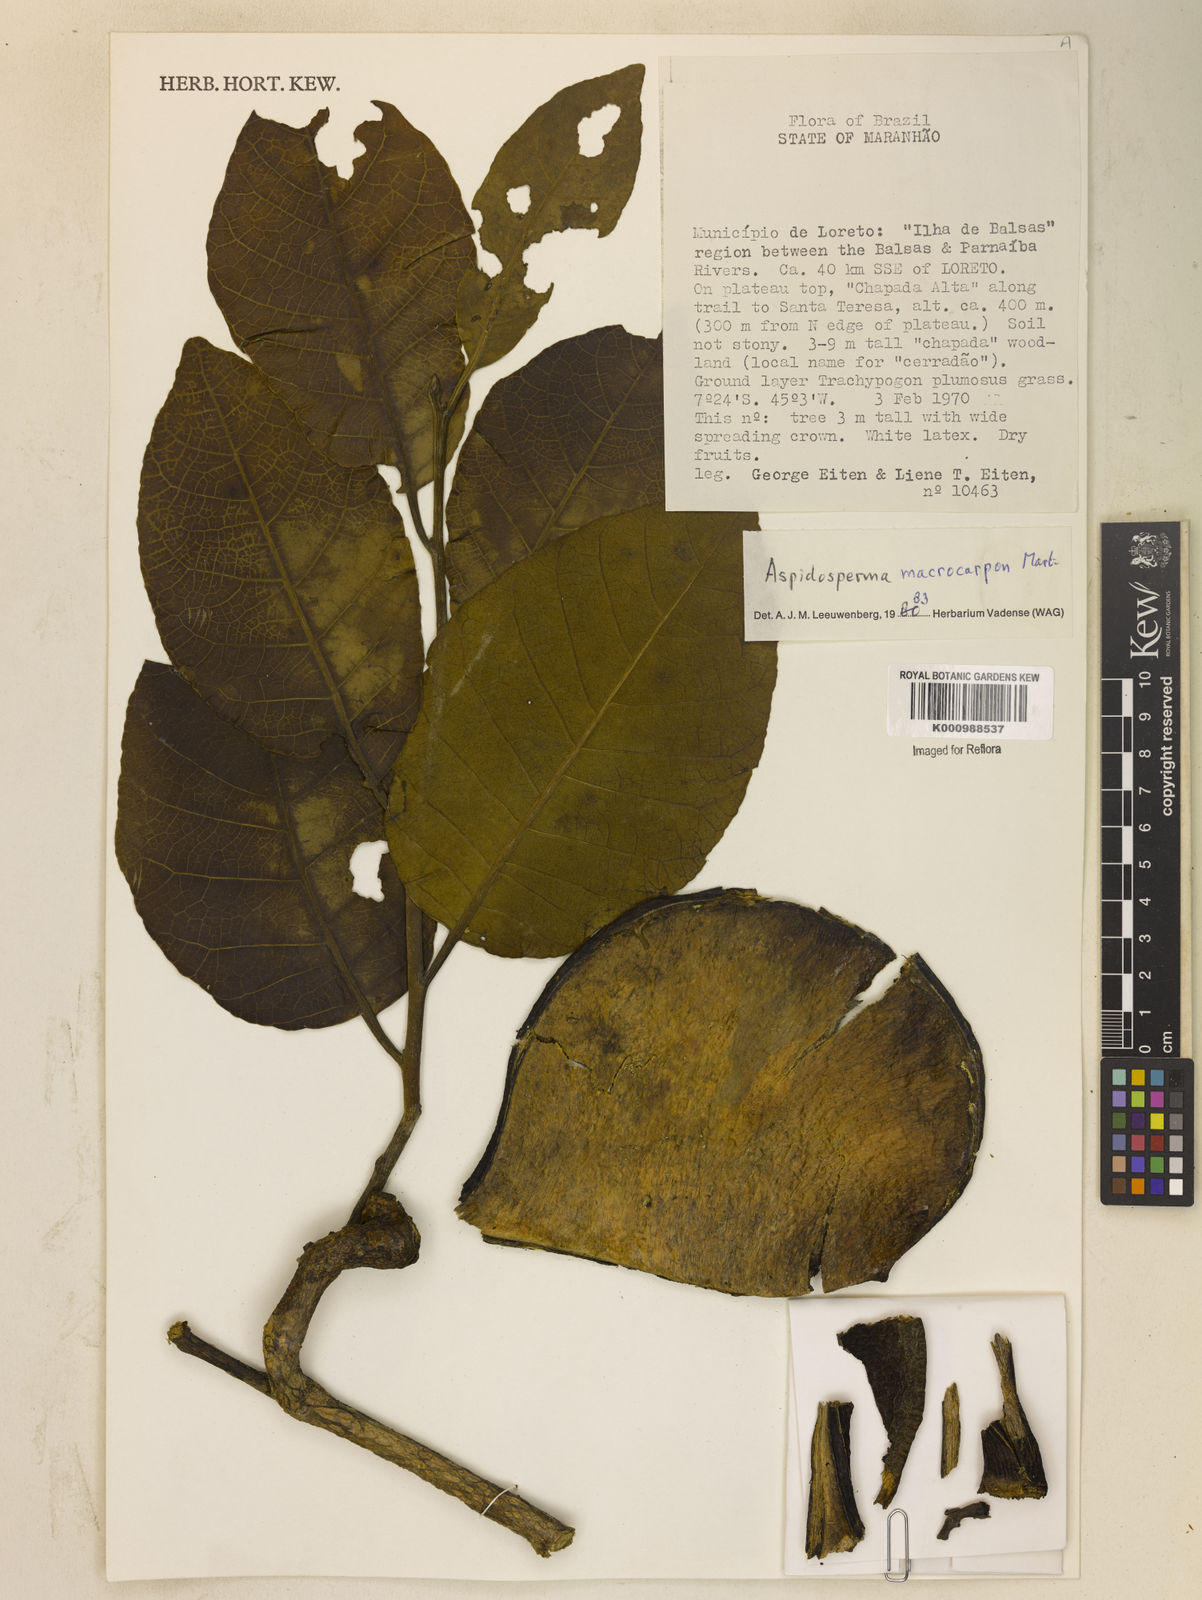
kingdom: Plantae
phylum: Tracheophyta
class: Magnoliopsida
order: Gentianales
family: Apocynaceae
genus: Aspidosperma
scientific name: Aspidosperma macrocarpon
